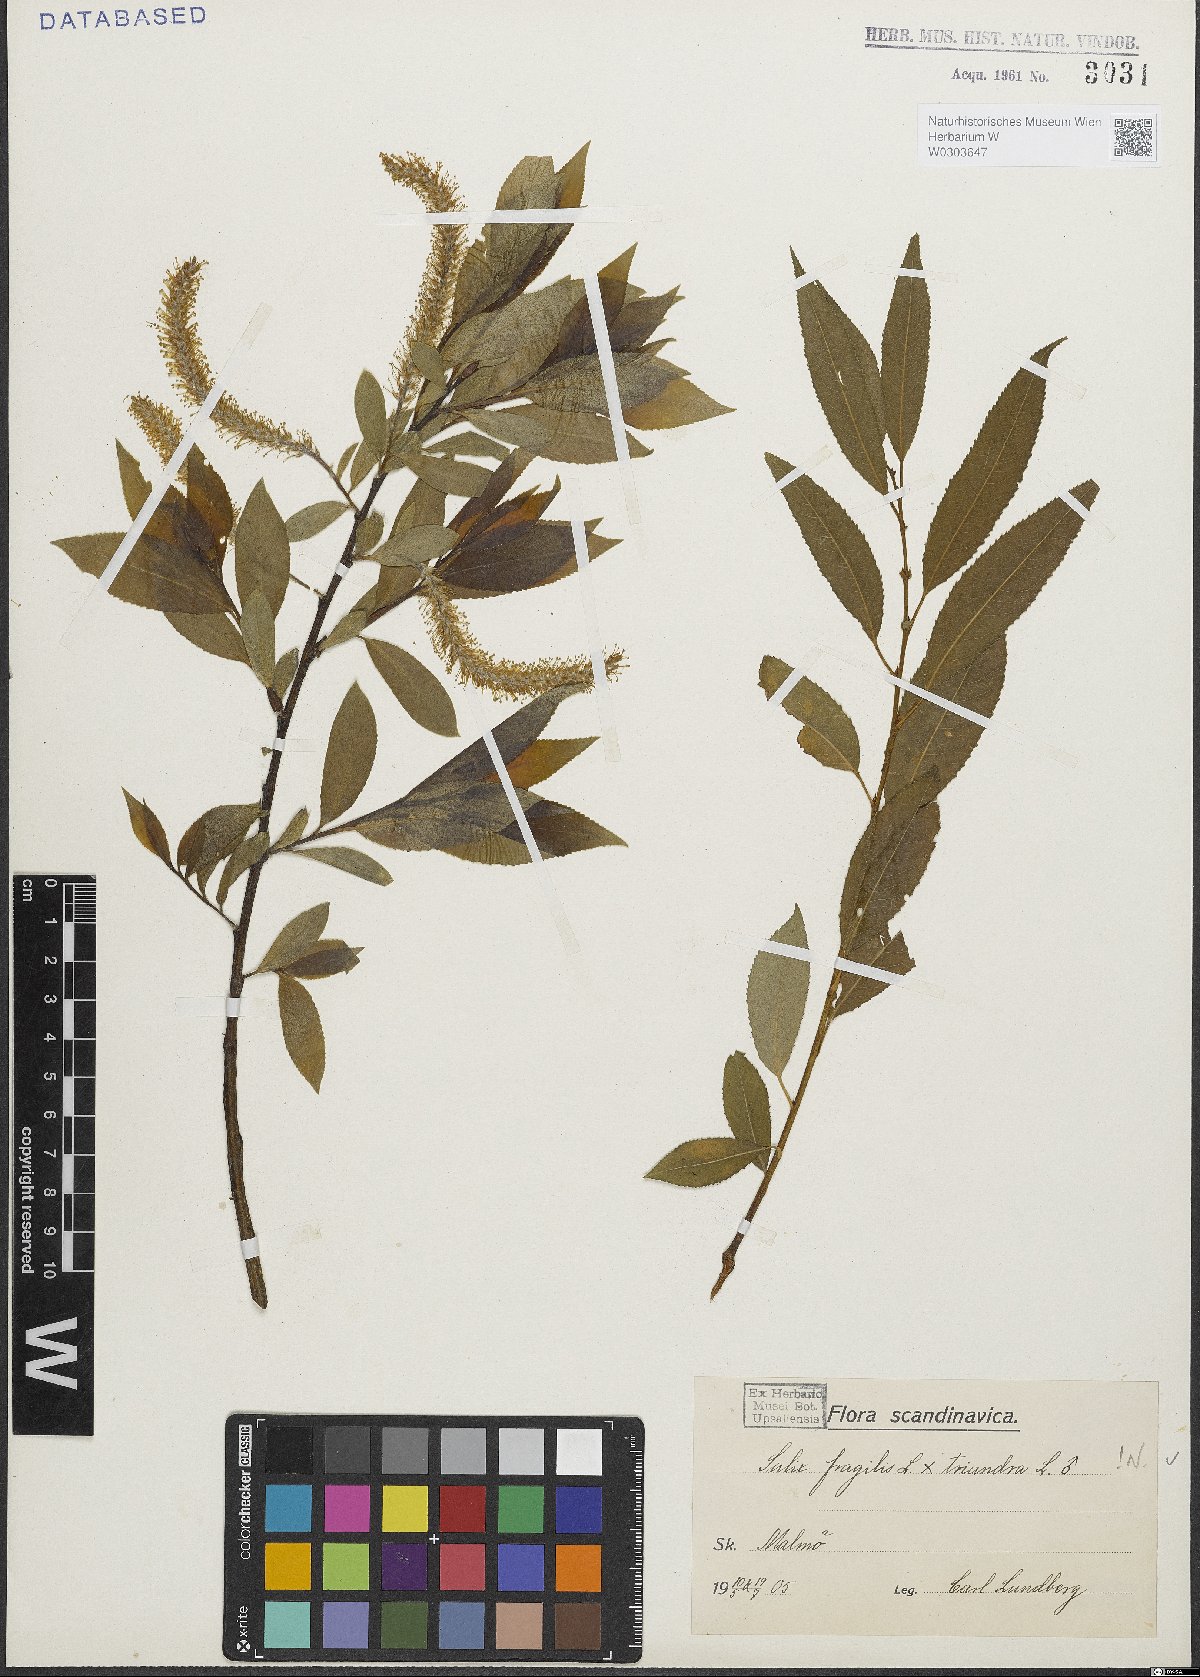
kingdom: Plantae
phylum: Tracheophyta
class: Magnoliopsida
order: Malpighiales
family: Salicaceae
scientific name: Salicaceae
